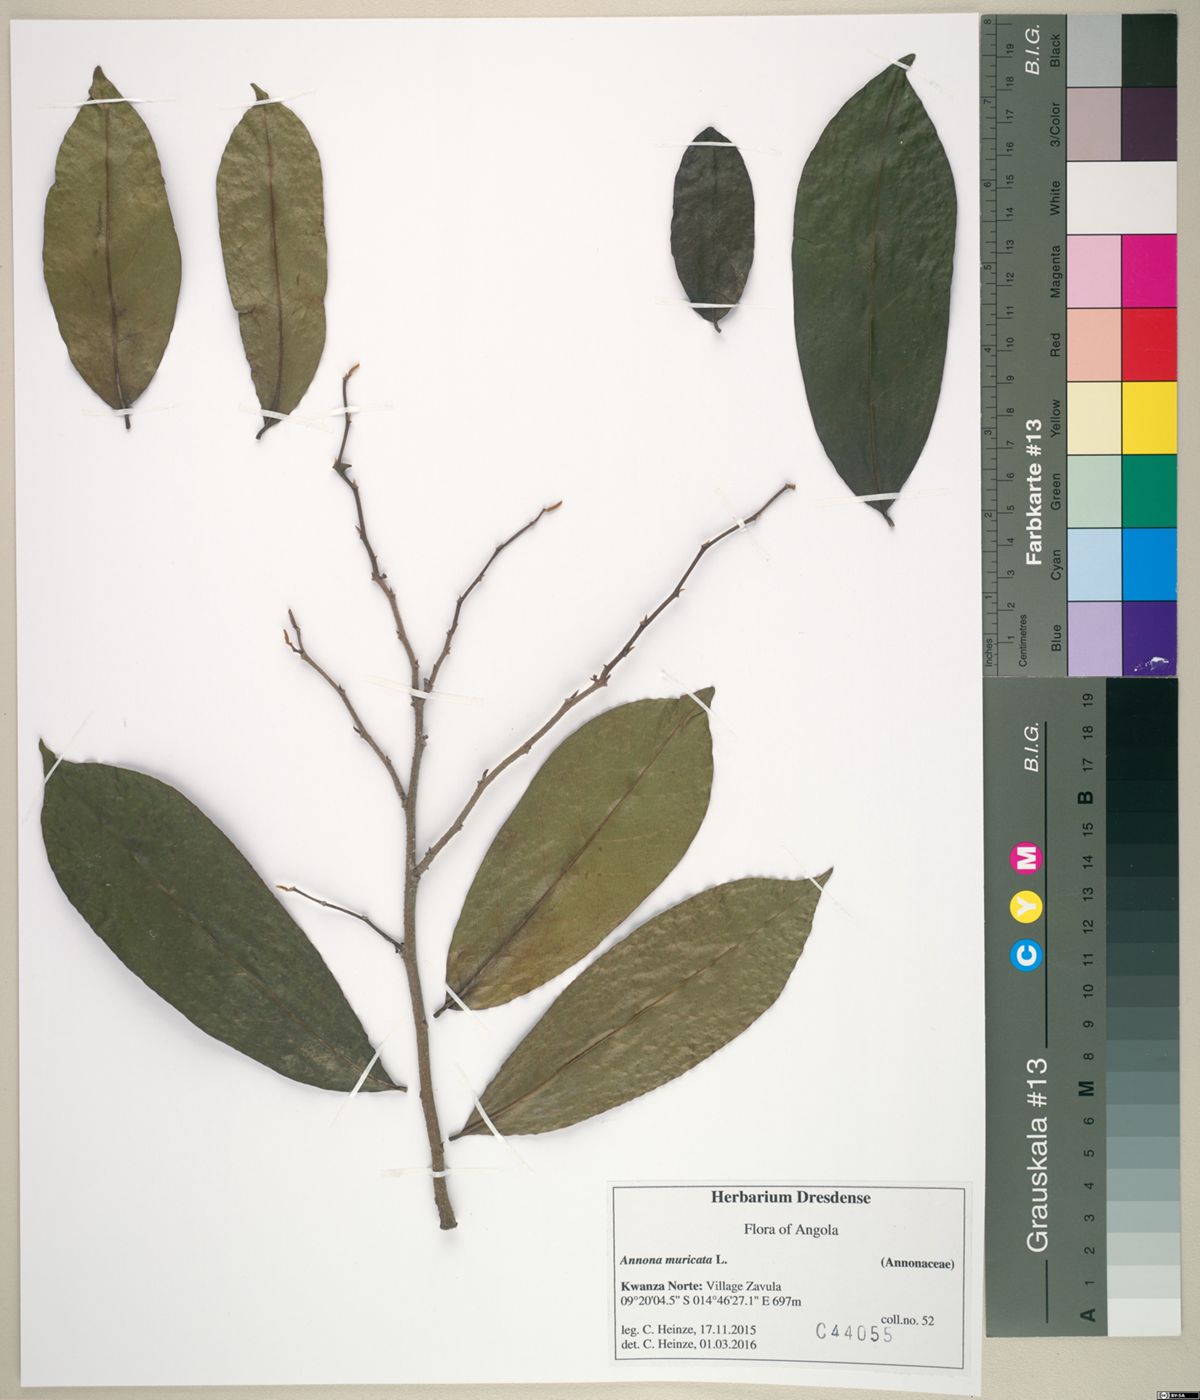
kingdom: Plantae
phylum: Tracheophyta
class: Magnoliopsida
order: Magnoliales
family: Annonaceae
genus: Annona
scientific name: Annona muricata
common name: Soursop
